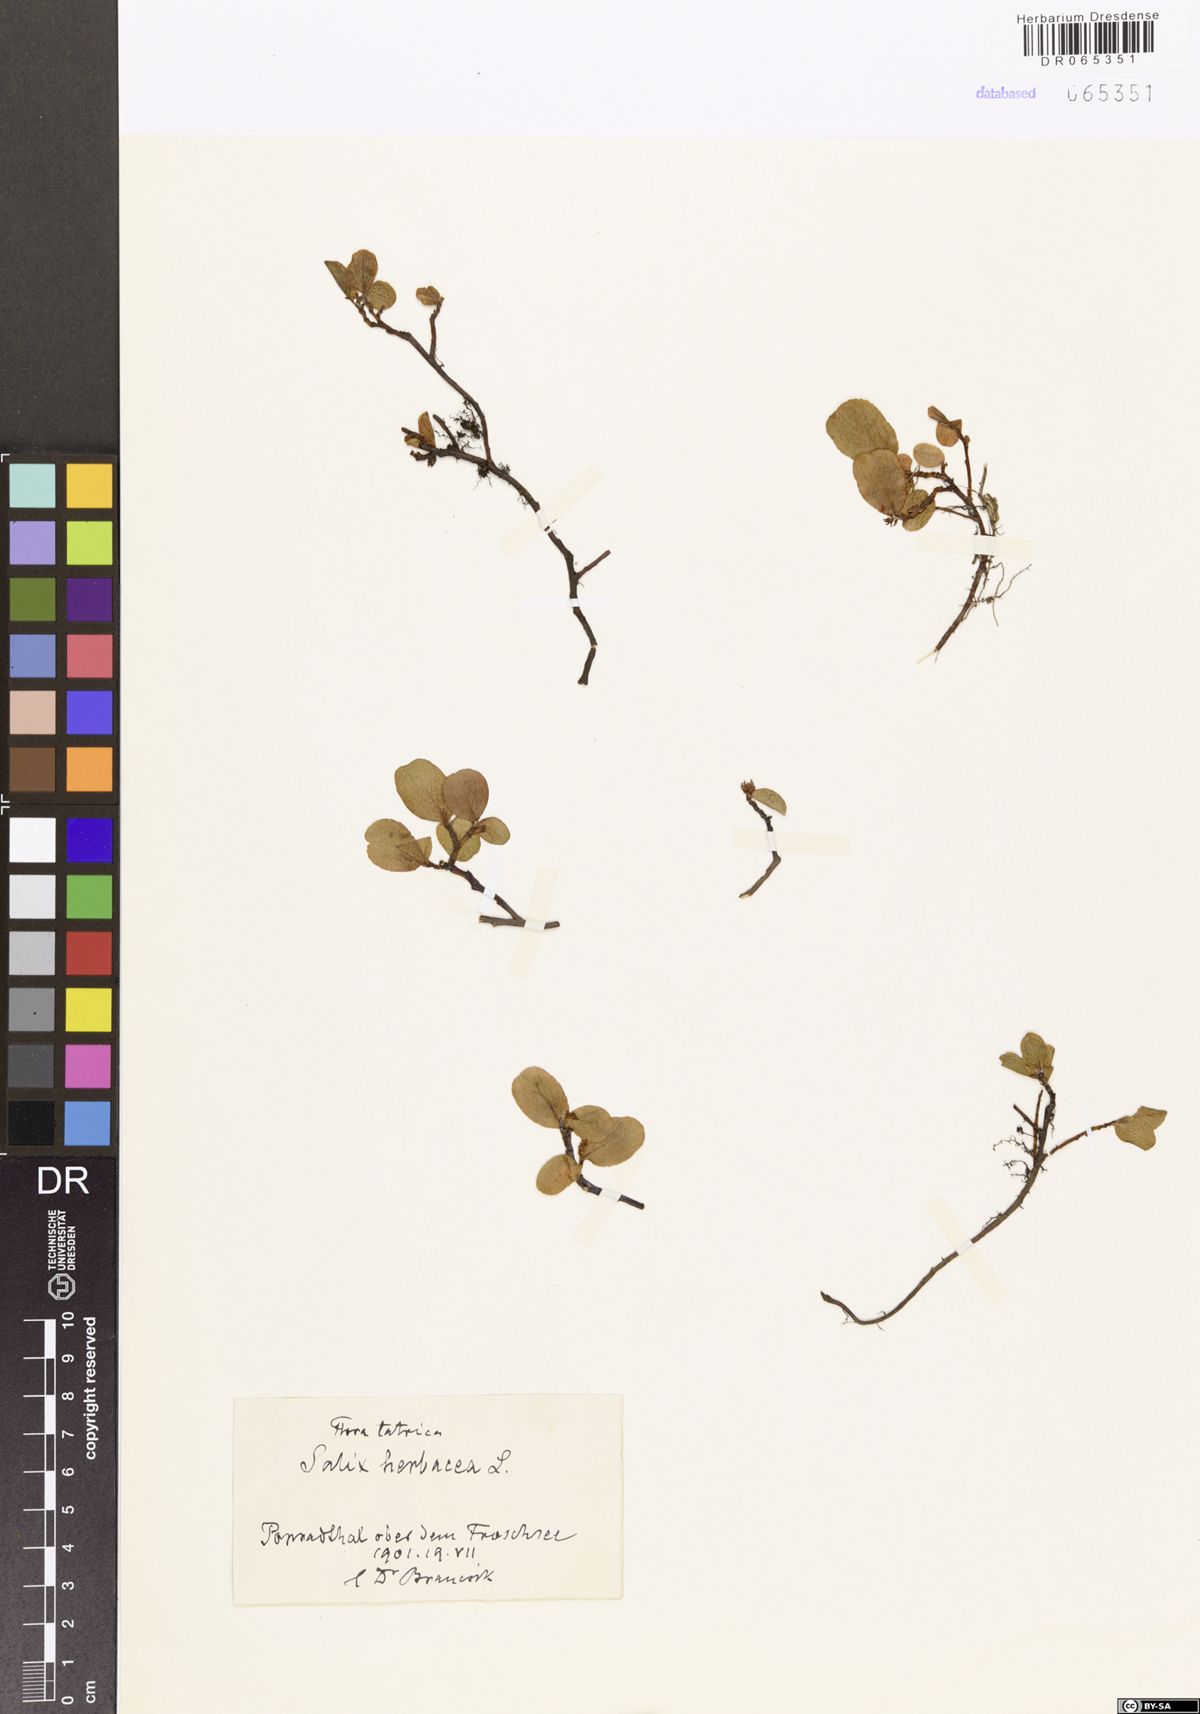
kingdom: Plantae
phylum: Tracheophyta
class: Magnoliopsida
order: Malpighiales
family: Salicaceae
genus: Salix
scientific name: Salix herbacea
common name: Dwarf willow
